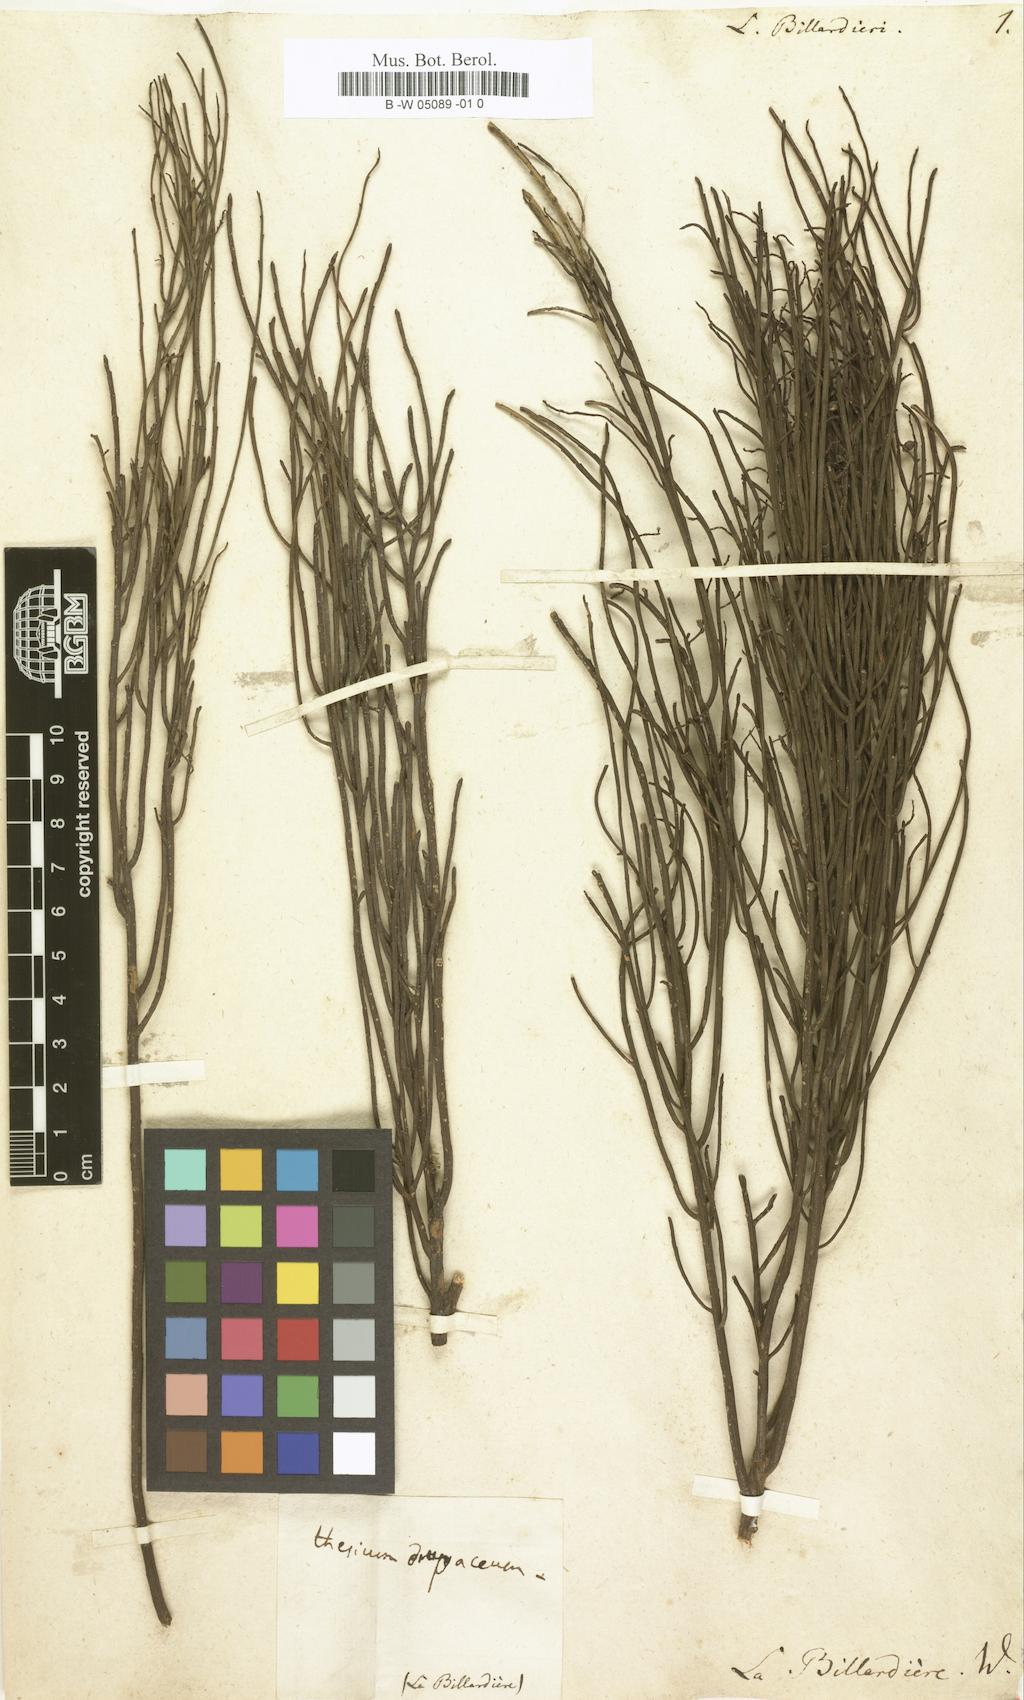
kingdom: Plantae
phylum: Tracheophyta
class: Magnoliopsida
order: Santalales
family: Amphorogynaceae
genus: Leptomeria
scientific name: Leptomeria drupacea
